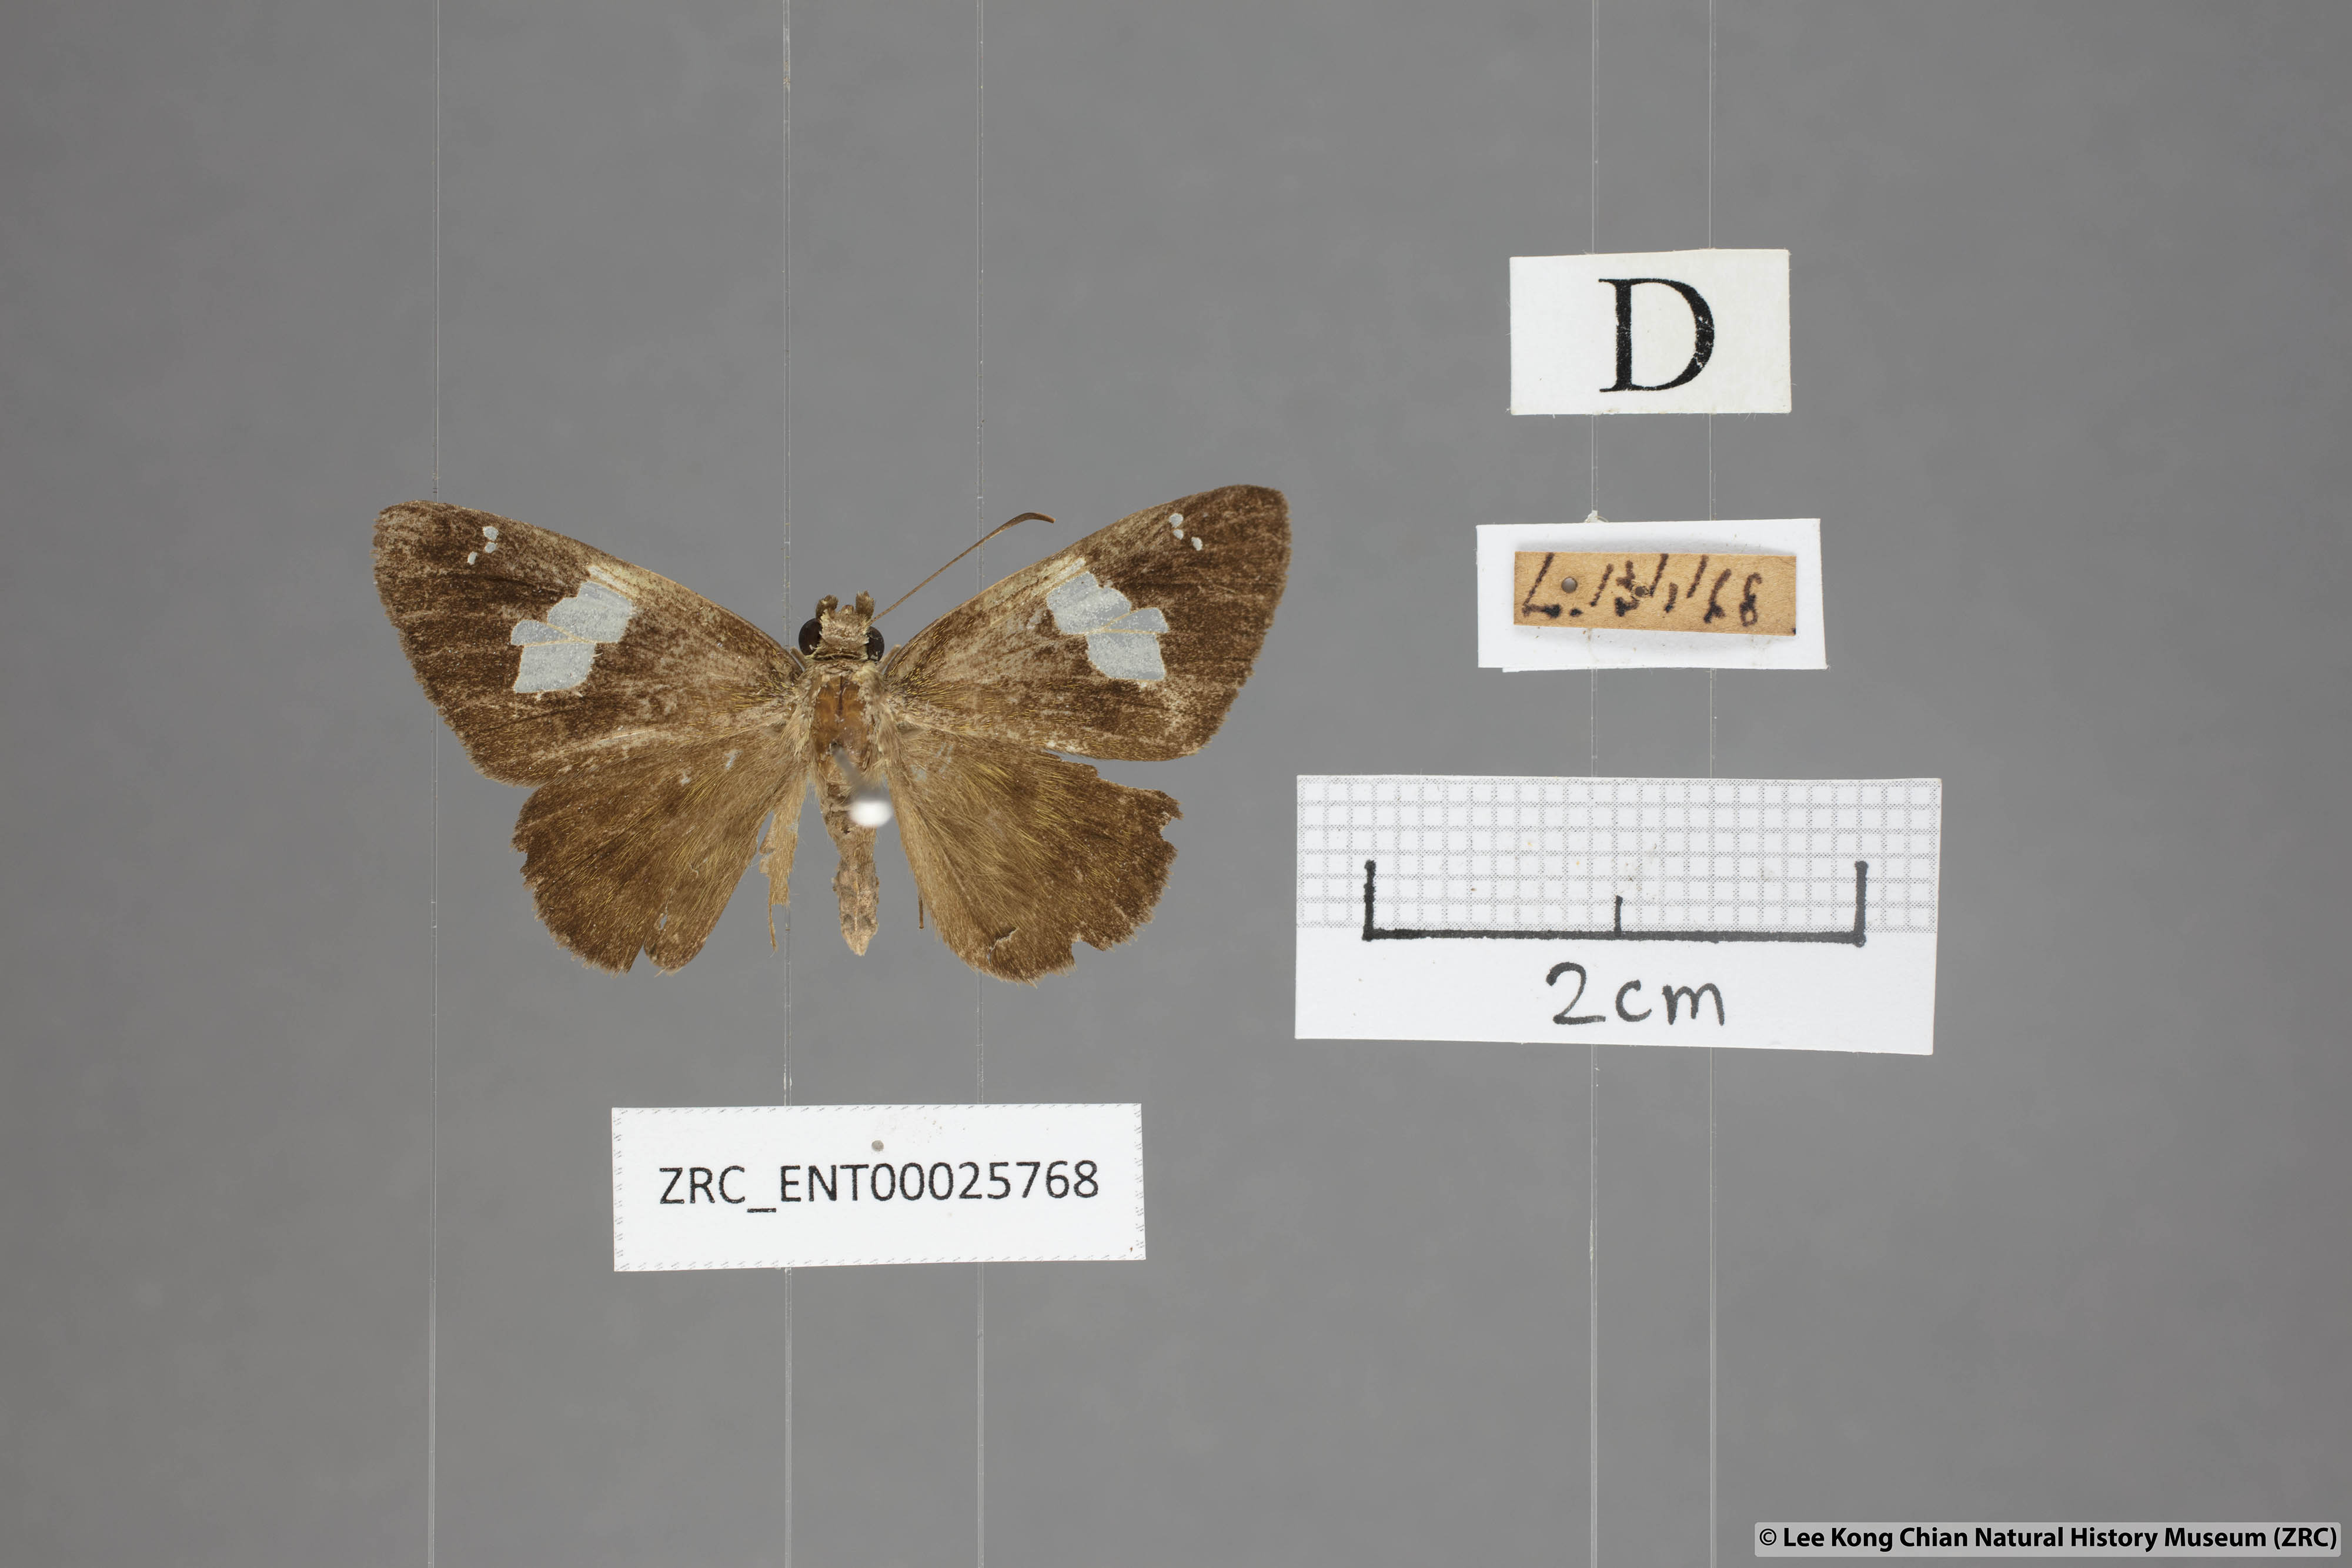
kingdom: Animalia
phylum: Arthropoda
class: Insecta
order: Lepidoptera
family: Hesperiidae
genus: Celaenorrhinus
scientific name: Celaenorrhinus asmara
